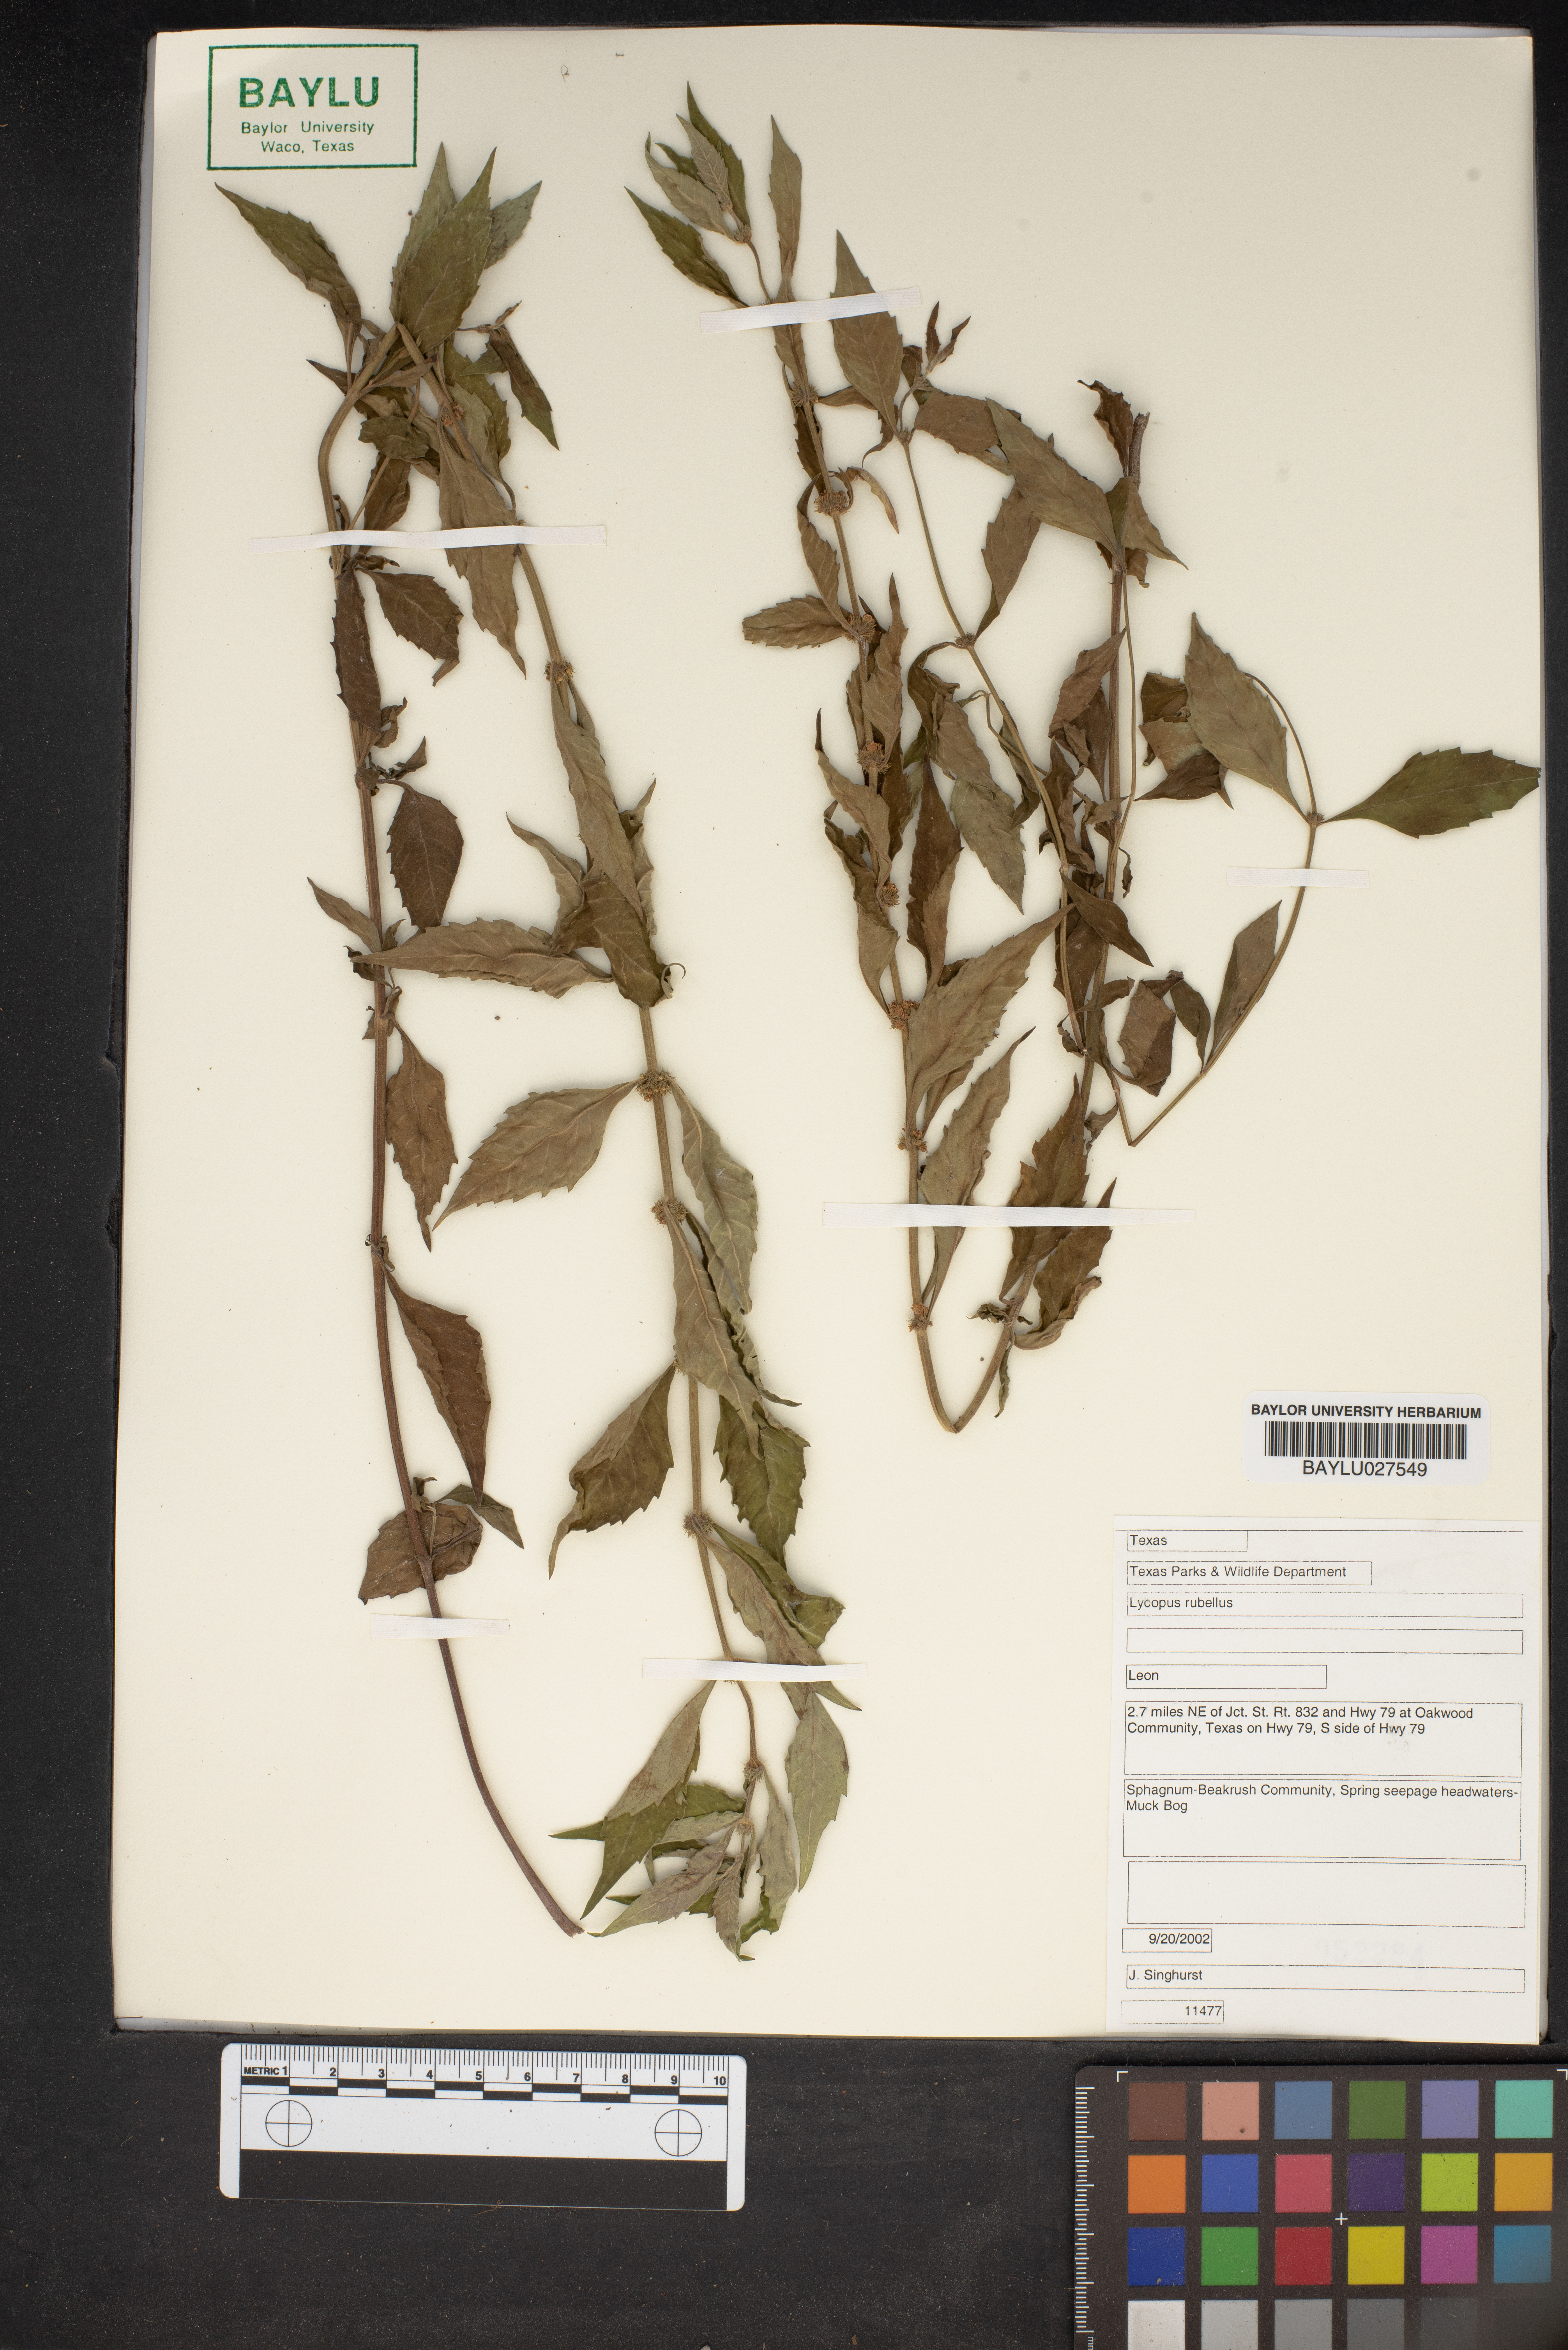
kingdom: Plantae
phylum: Tracheophyta
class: Magnoliopsida
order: Lamiales
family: Lamiaceae
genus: Lycopus
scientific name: Lycopus rubellus
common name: Stalked bugleweed
